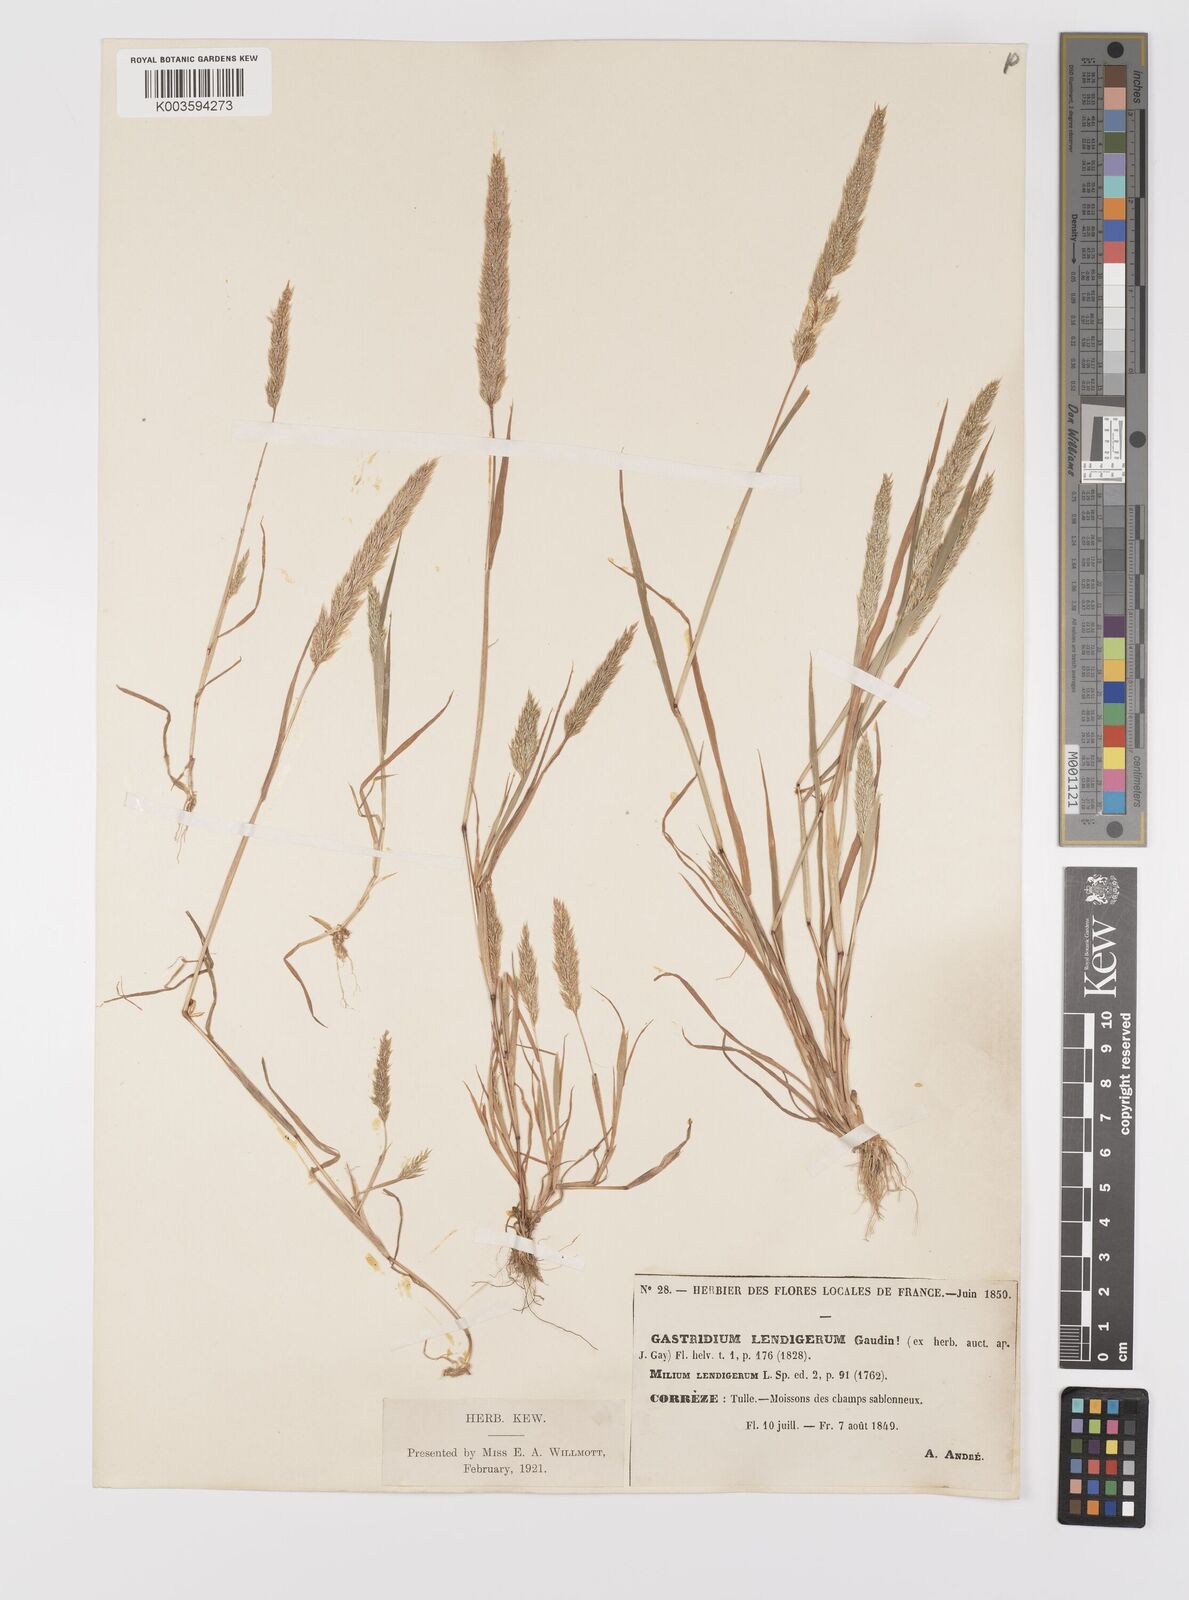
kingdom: Plantae
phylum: Tracheophyta
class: Liliopsida
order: Poales
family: Poaceae
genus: Gastridium
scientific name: Gastridium ventricosum
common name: Nit-grass
